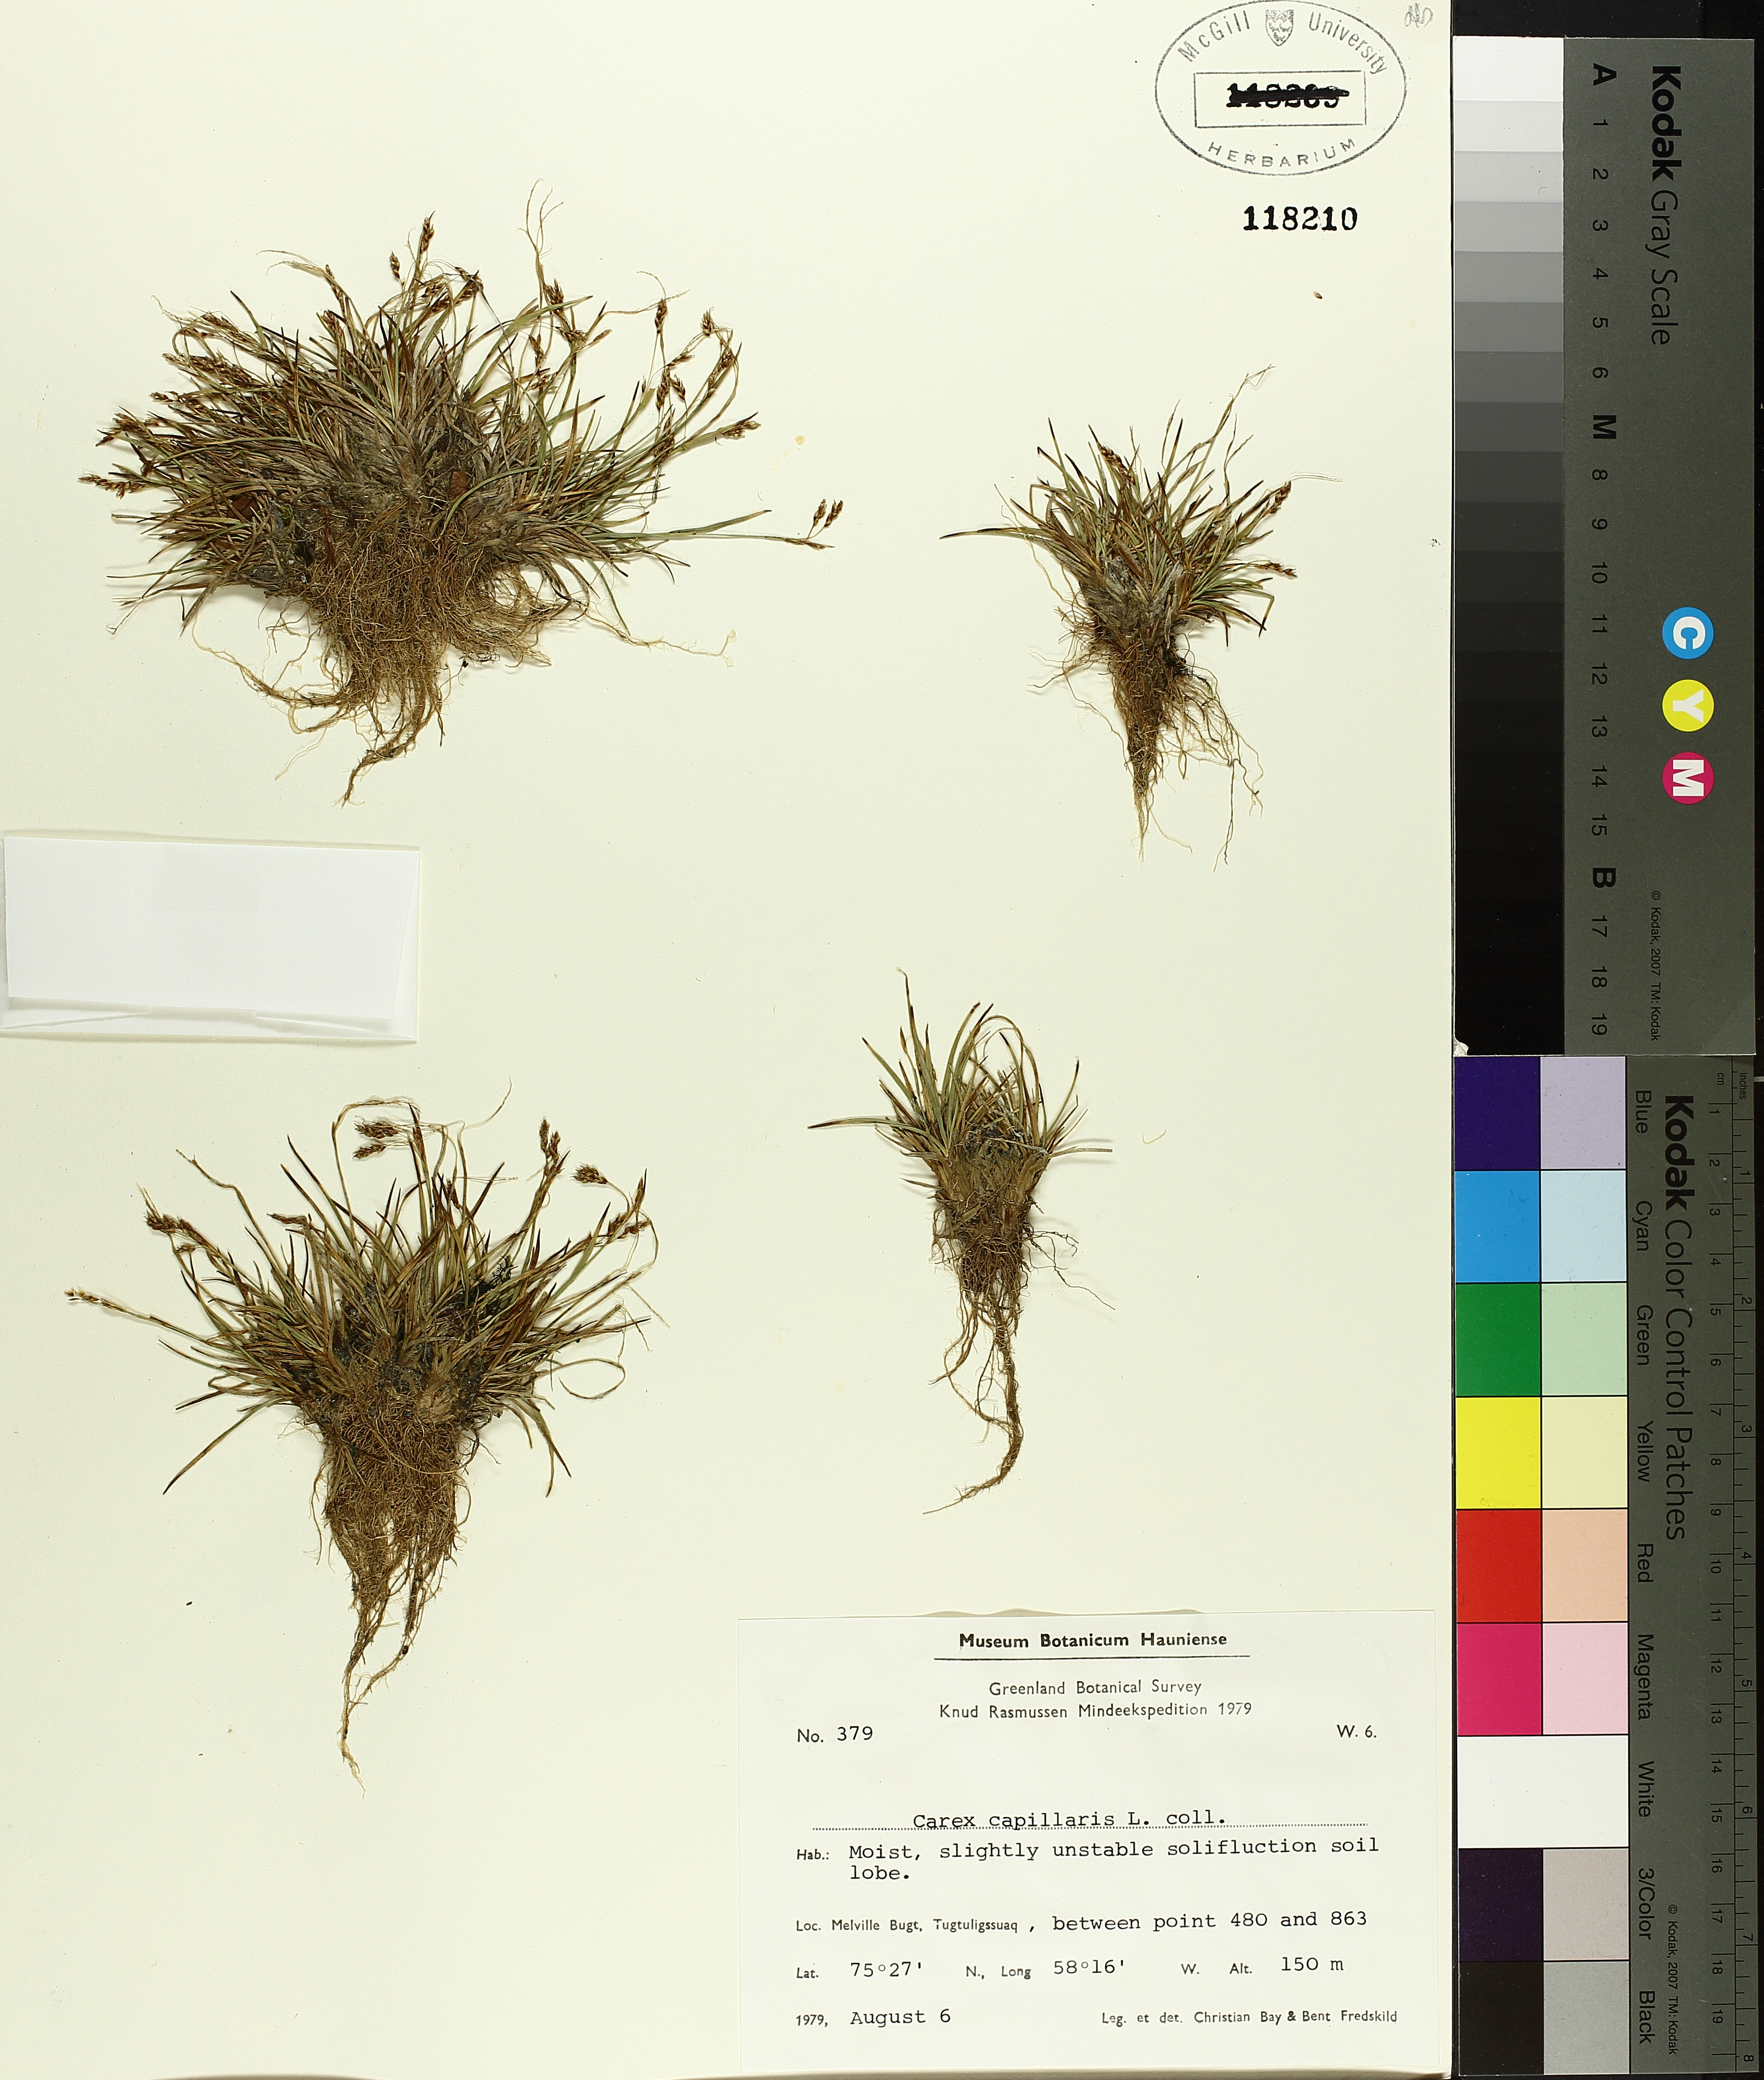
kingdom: Plantae
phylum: Tracheophyta
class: Liliopsida
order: Poales
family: Cyperaceae
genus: Carex
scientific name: Carex capillaris
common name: Hair sedge
